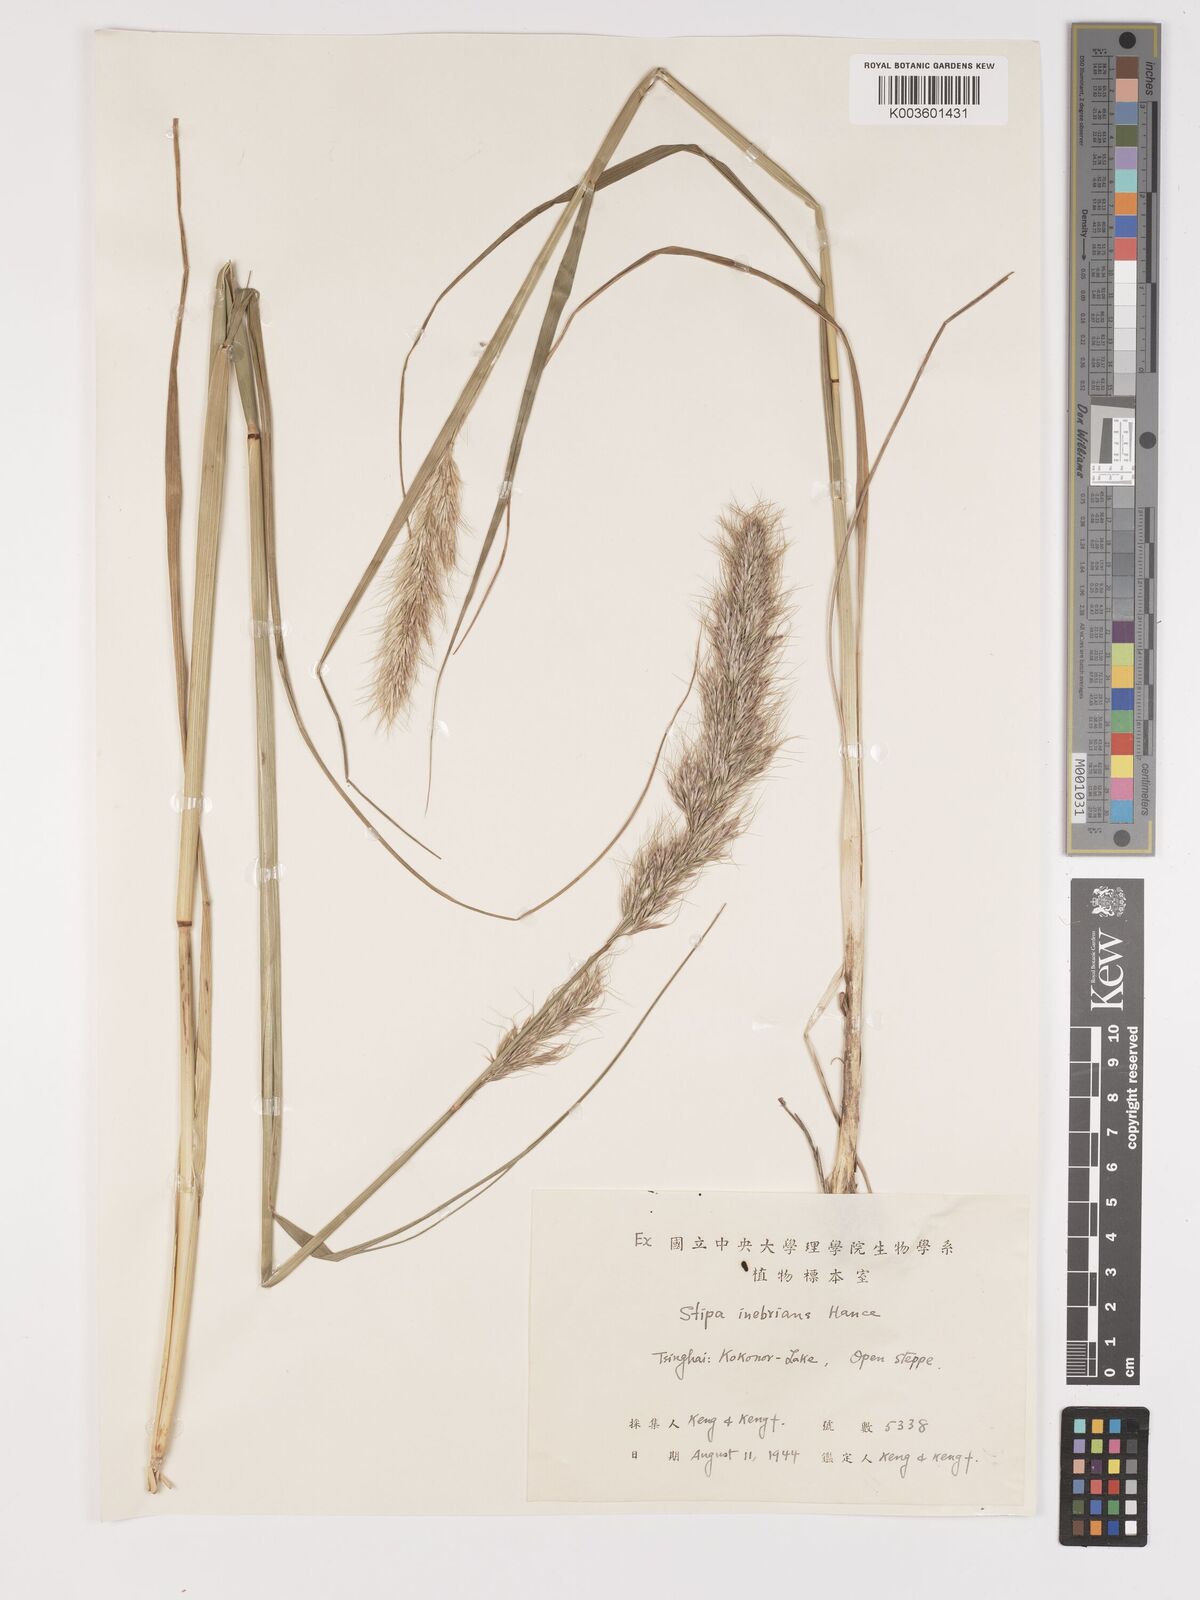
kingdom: Plantae
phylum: Tracheophyta
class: Liliopsida
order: Poales
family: Poaceae
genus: Achnatherum
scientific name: Achnatherum inebrians
